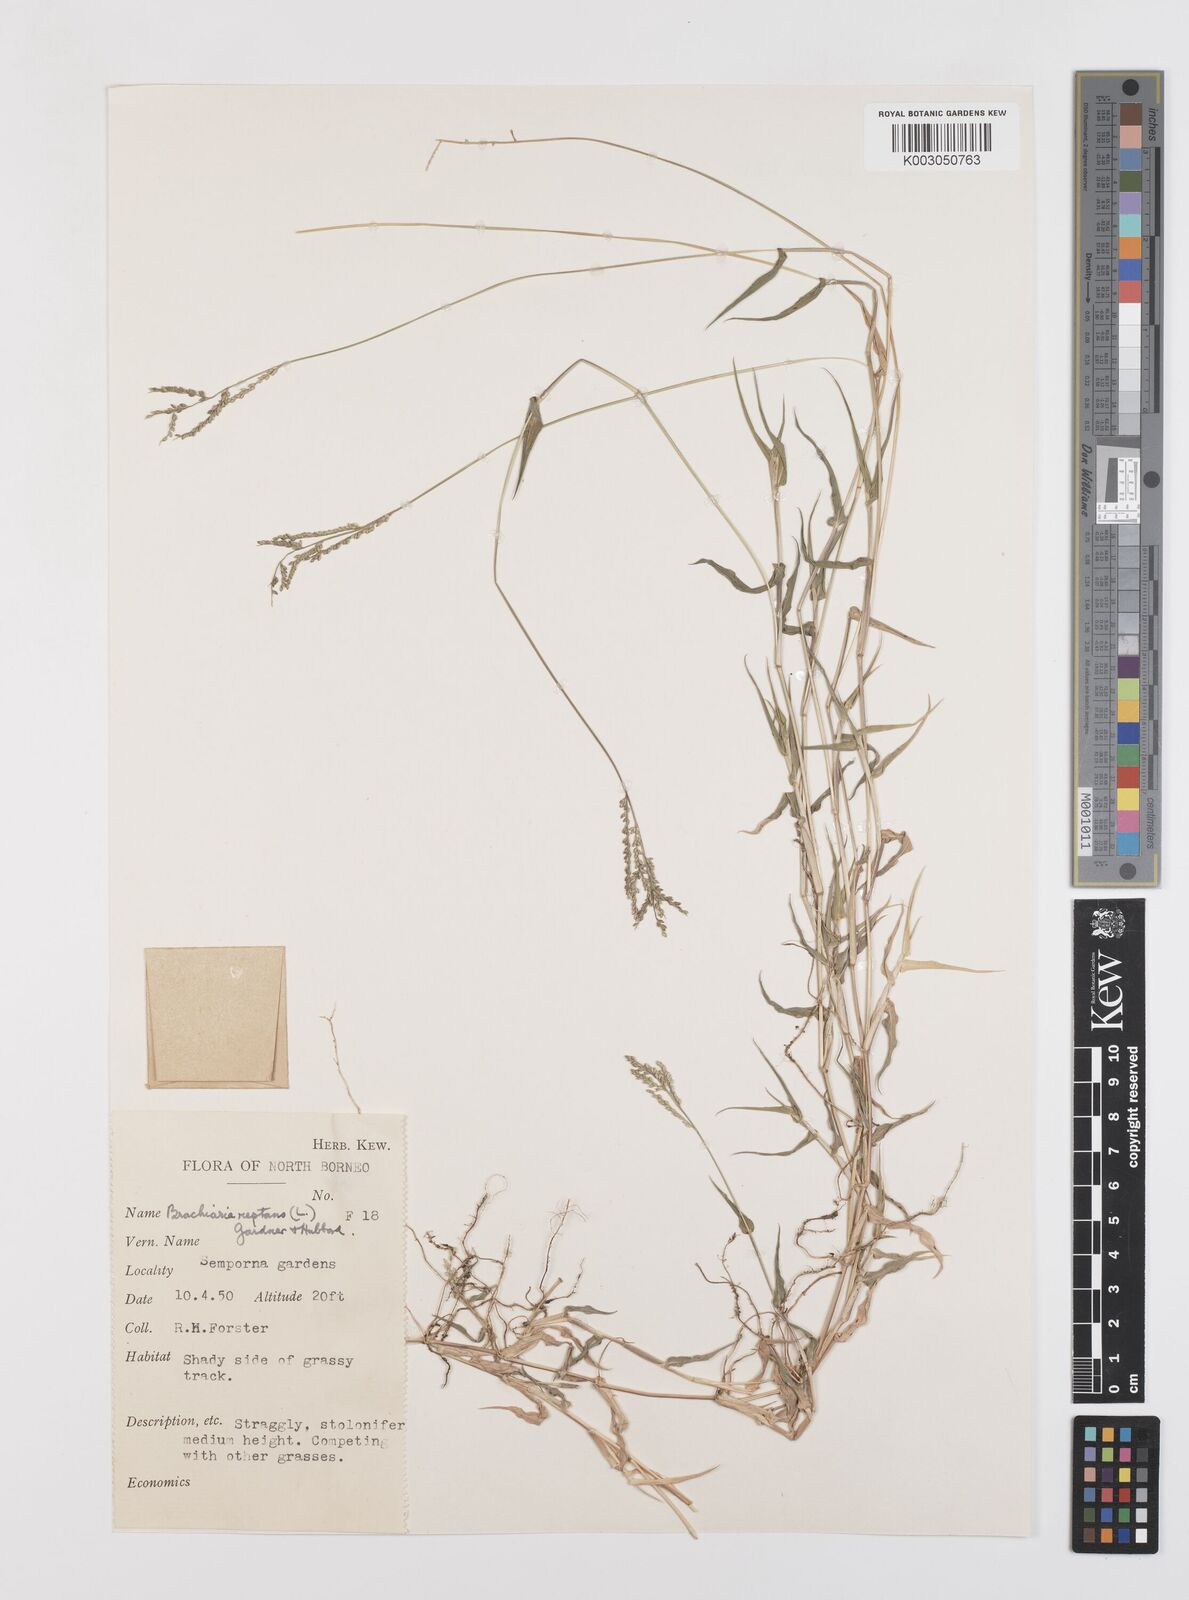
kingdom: Plantae
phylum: Tracheophyta
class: Liliopsida
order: Poales
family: Poaceae
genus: Urochloa
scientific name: Urochloa reptans
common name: Sprawling signalgrass
